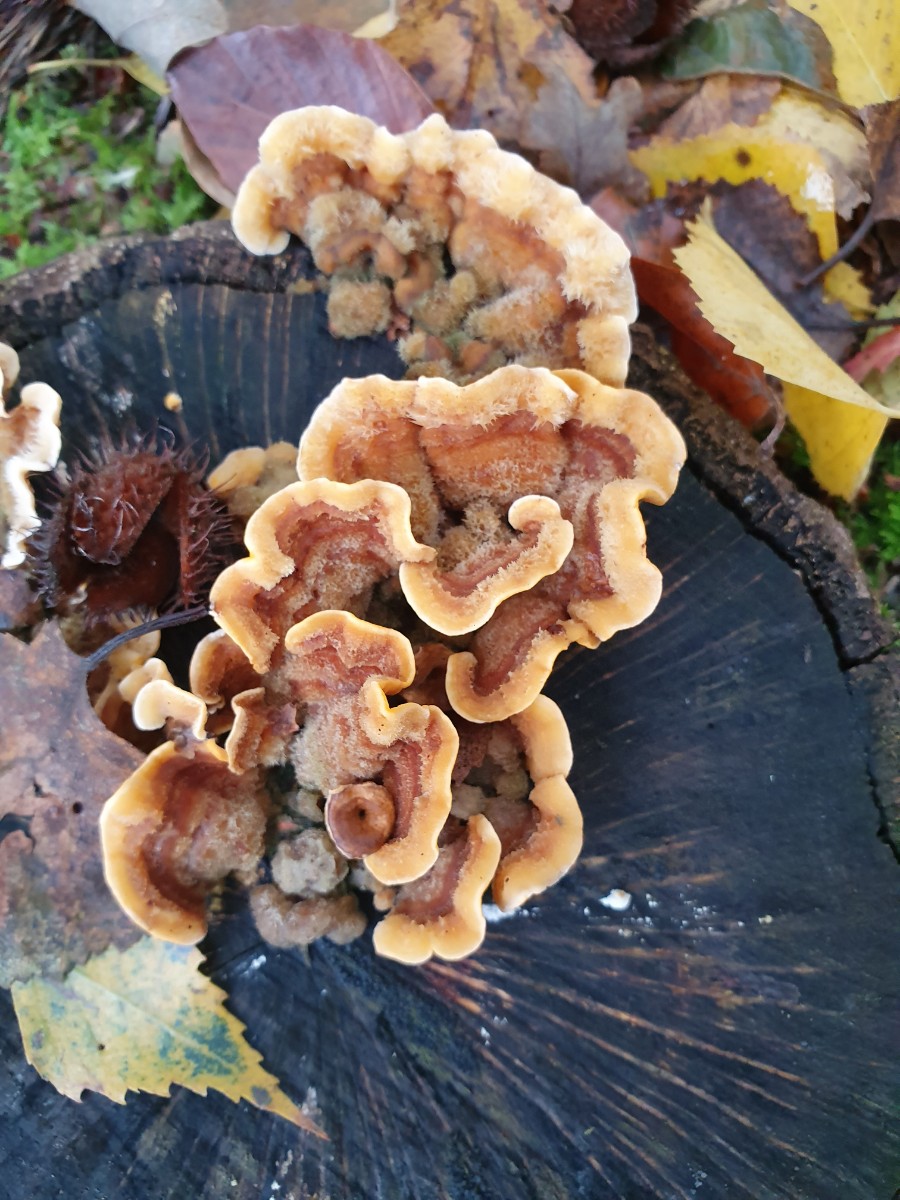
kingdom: Fungi
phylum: Basidiomycota
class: Agaricomycetes
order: Russulales
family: Stereaceae
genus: Stereum
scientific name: Stereum hirsutum
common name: håret lædersvamp
